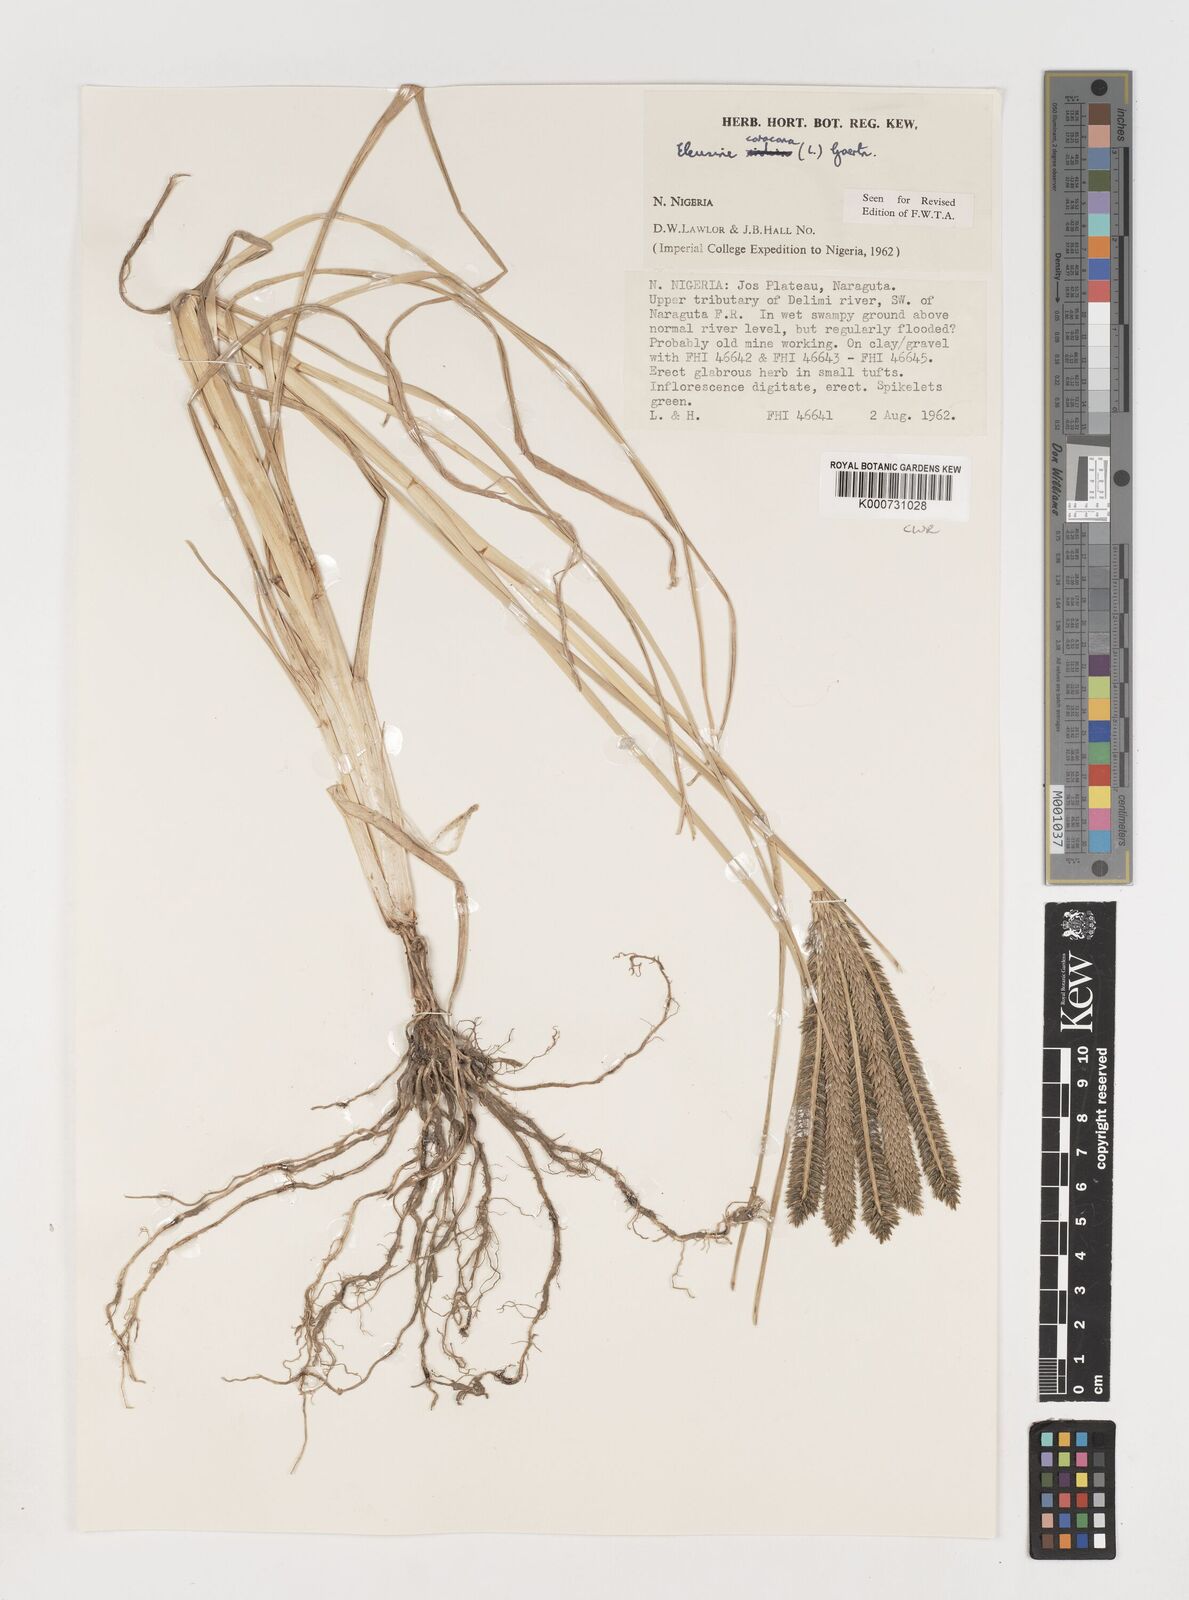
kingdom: Plantae
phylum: Tracheophyta
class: Liliopsida
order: Poales
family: Poaceae
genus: Eleusine
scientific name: Eleusine coracana
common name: Finger millet
